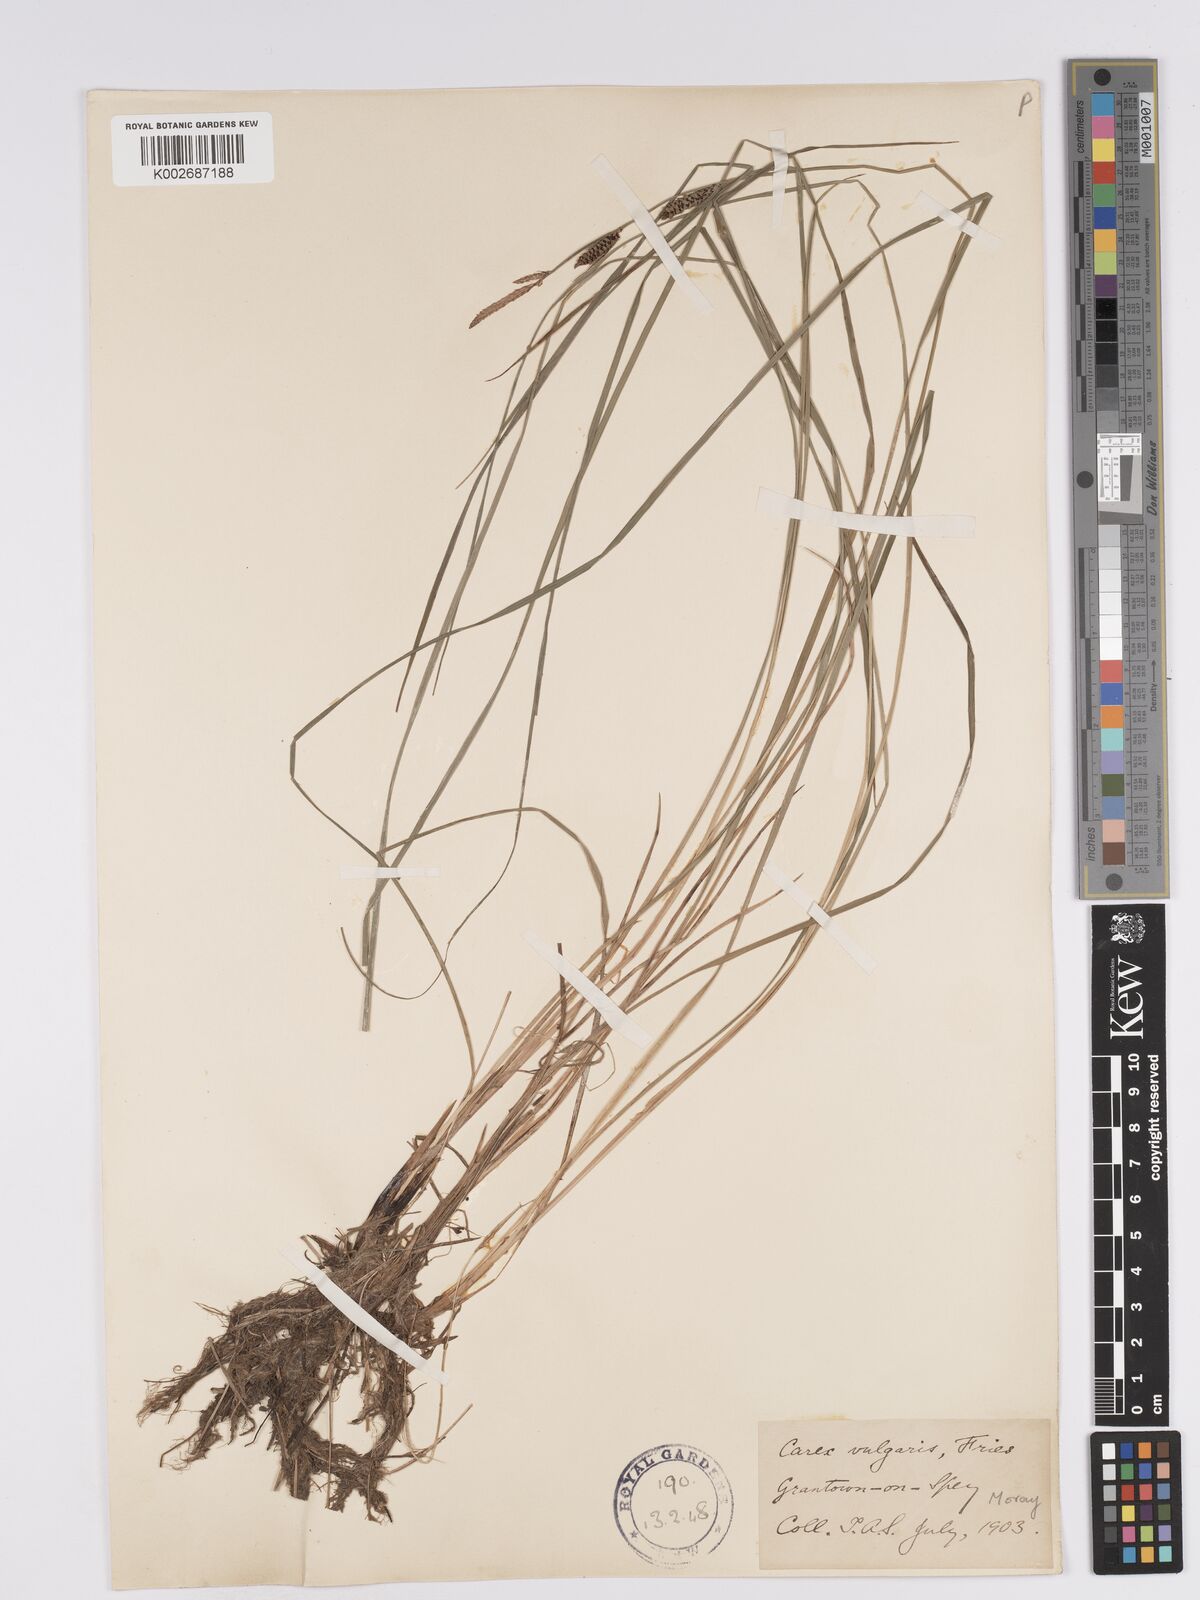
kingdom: Plantae
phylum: Tracheophyta
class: Liliopsida
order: Poales
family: Cyperaceae
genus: Carex
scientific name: Carex nigra
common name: Common sedge
